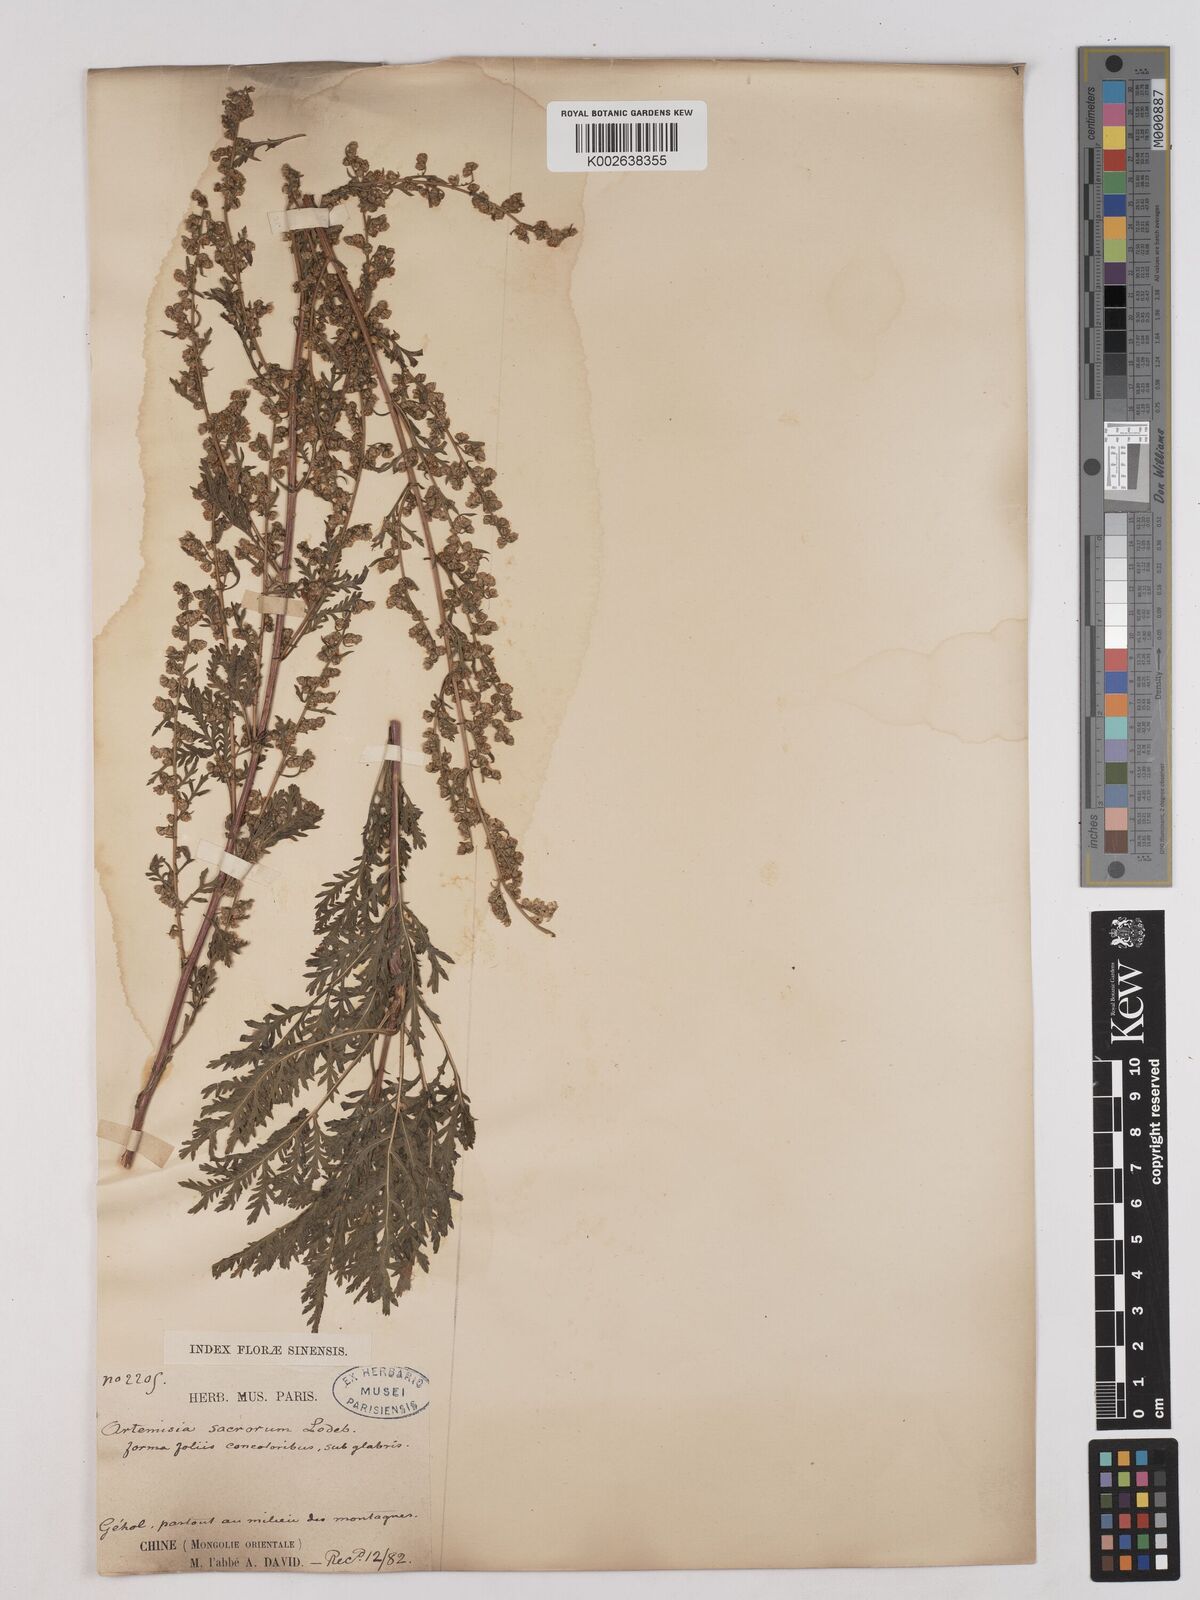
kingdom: Plantae
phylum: Tracheophyta
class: Magnoliopsida
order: Asterales
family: Asteraceae
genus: Artemisia
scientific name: Artemisia gmelinii
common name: Gmelin's wormwood
